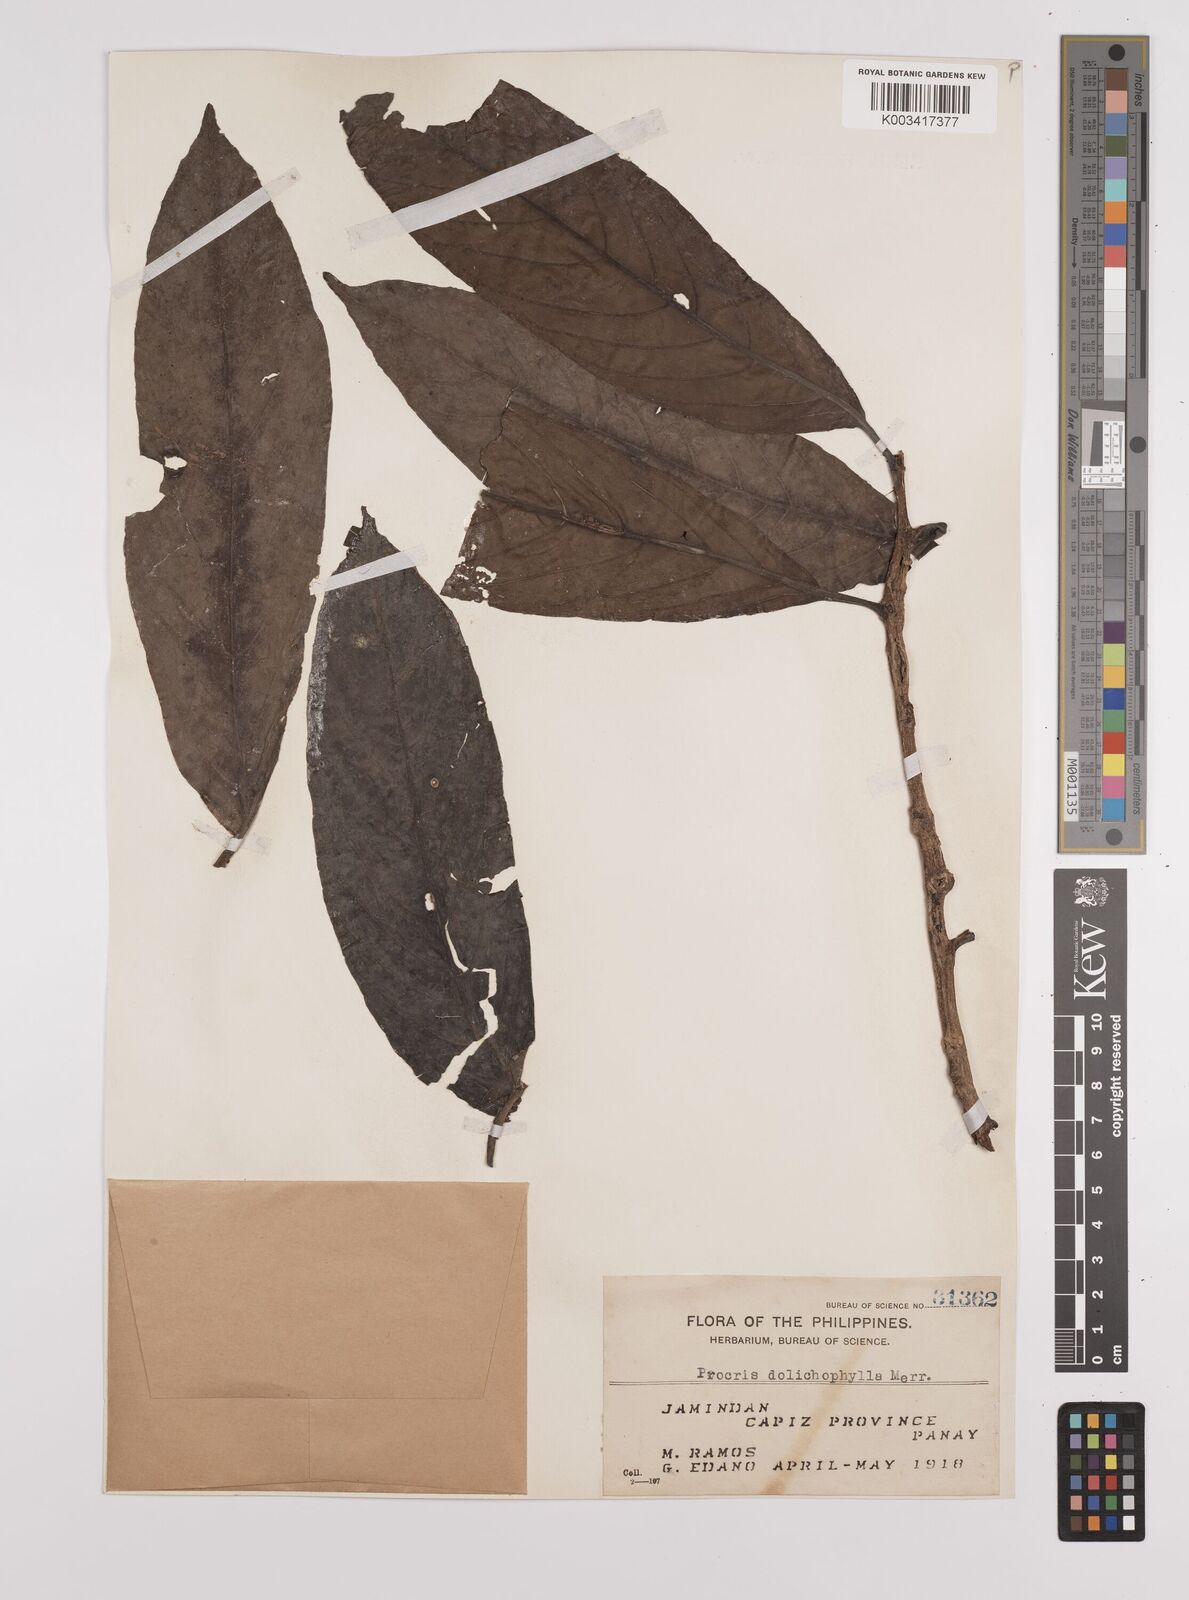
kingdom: Plantae
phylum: Tracheophyta
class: Magnoliopsida
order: Rosales
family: Urticaceae
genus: Procris
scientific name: Procris dolichophylla
